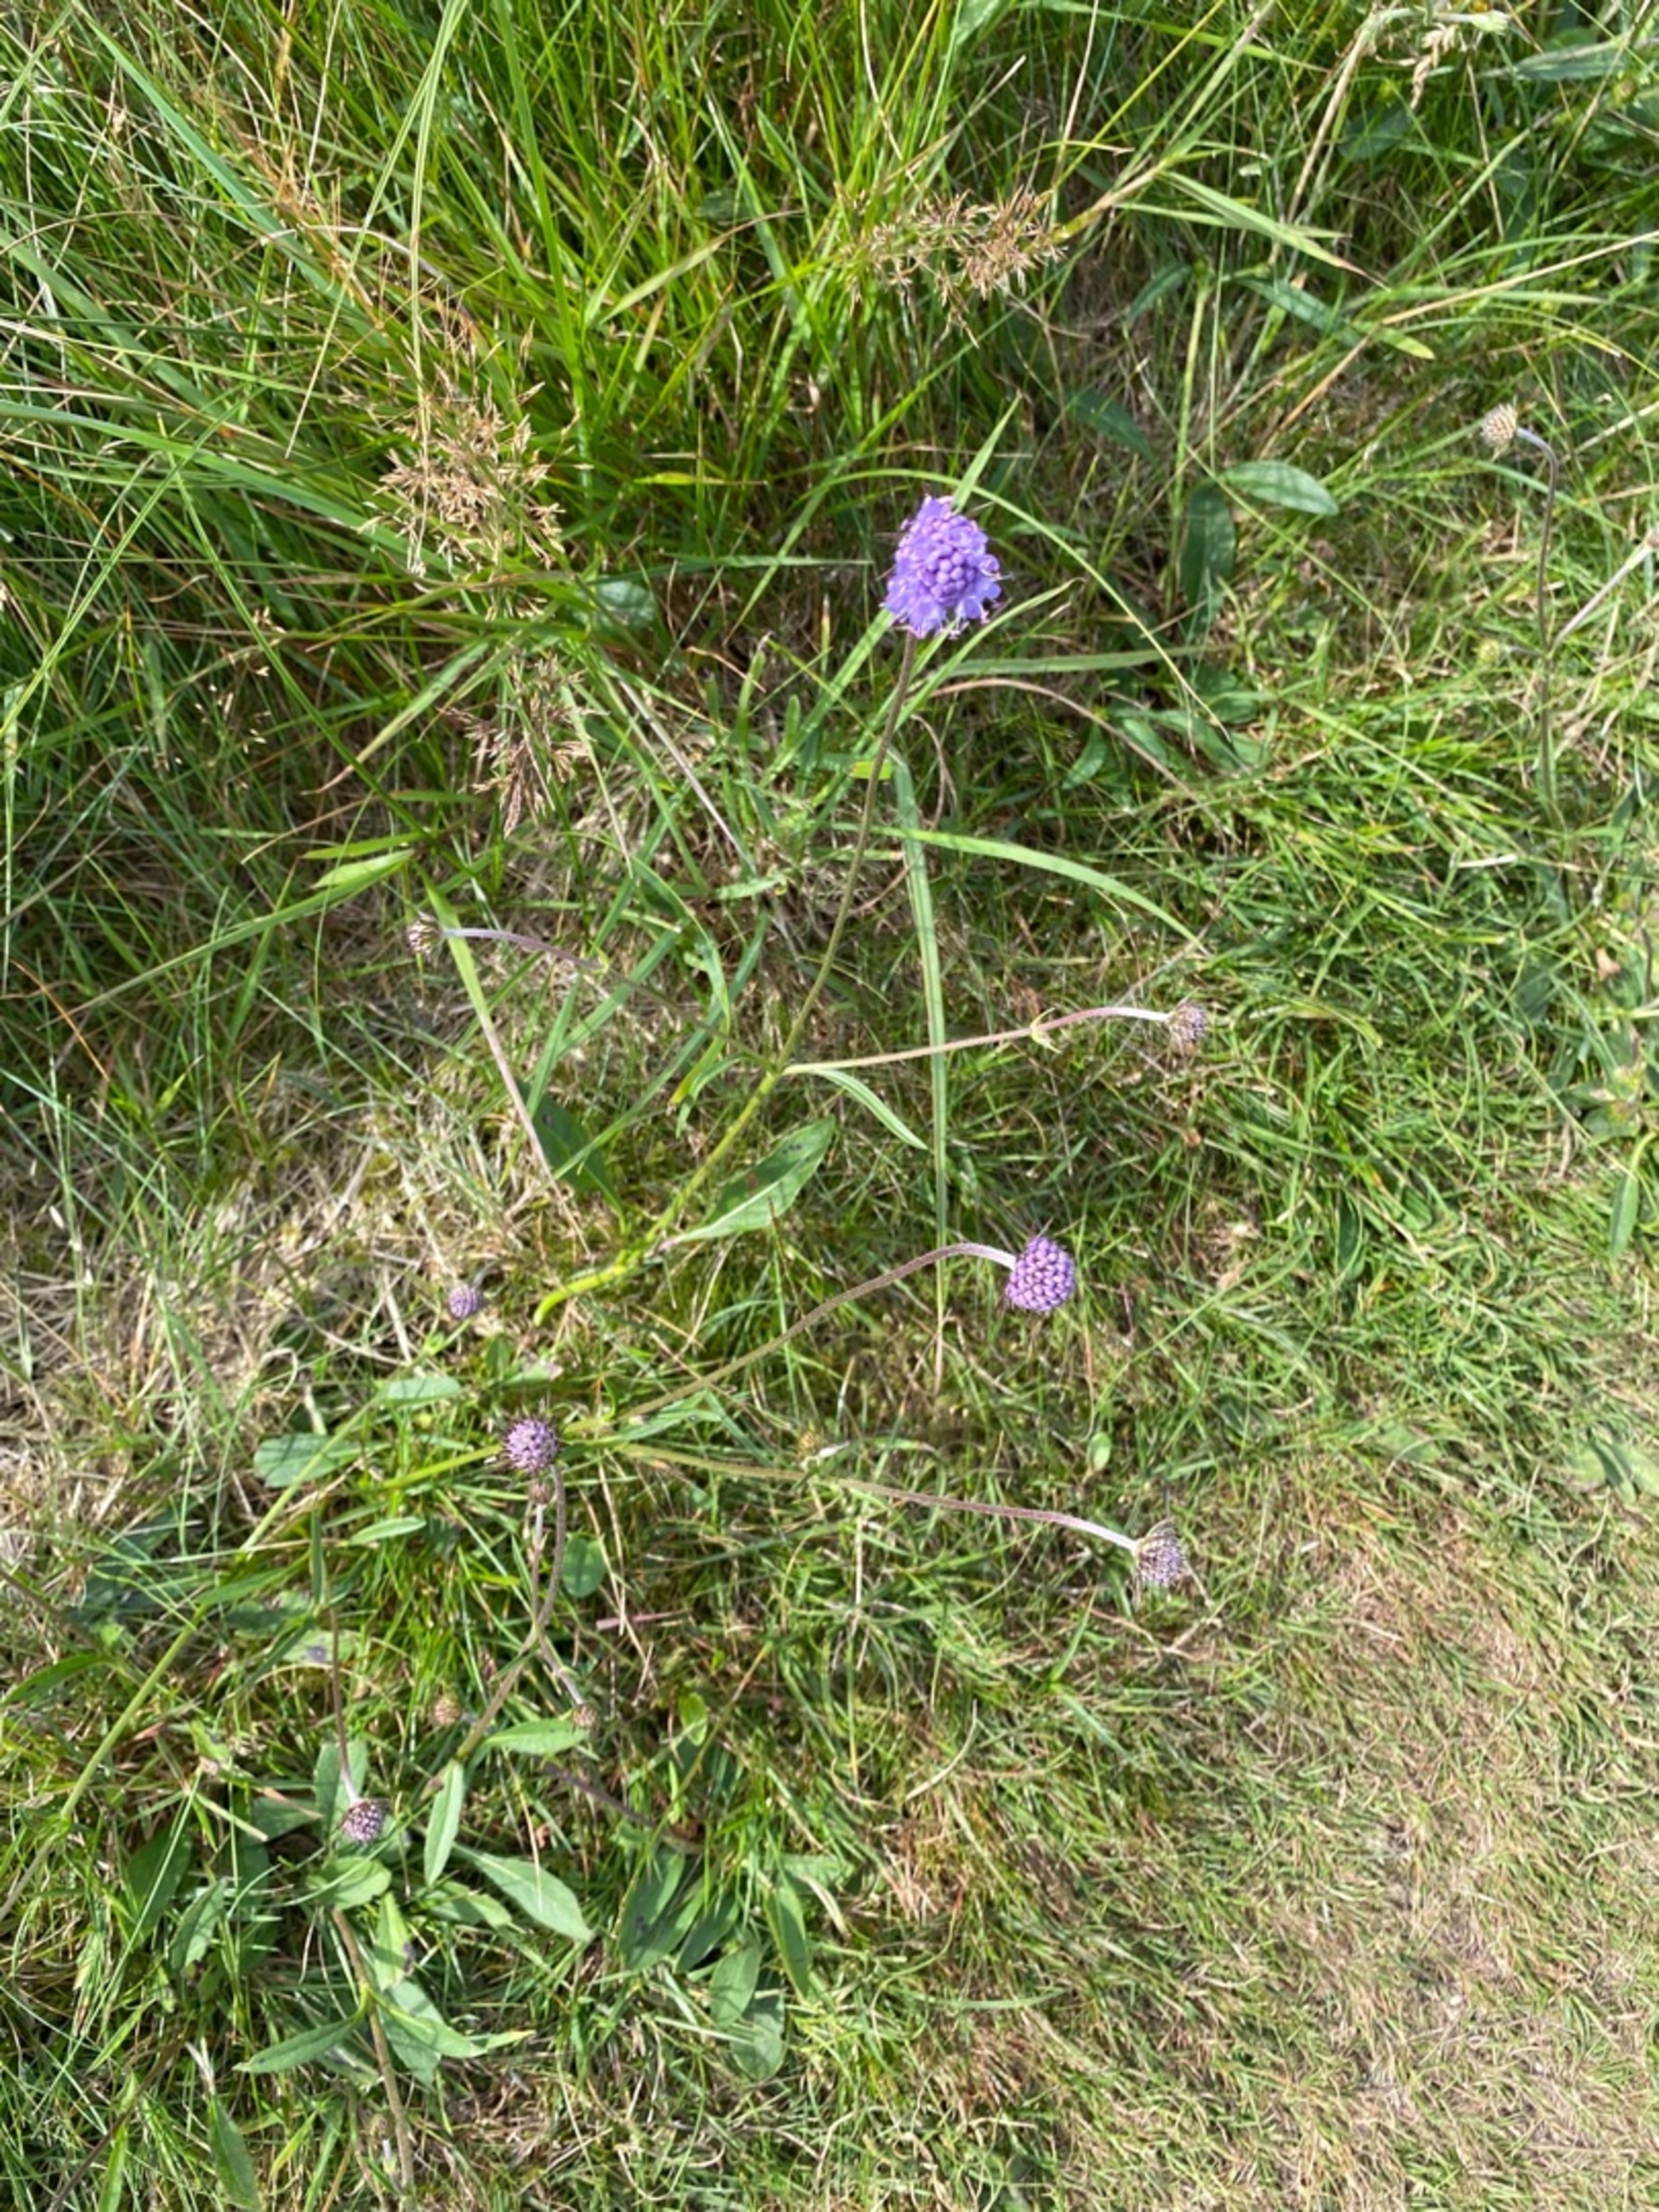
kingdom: Plantae
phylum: Tracheophyta
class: Magnoliopsida
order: Dipsacales
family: Caprifoliaceae
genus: Succisa
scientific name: Succisa pratensis
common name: Djævelsbid
